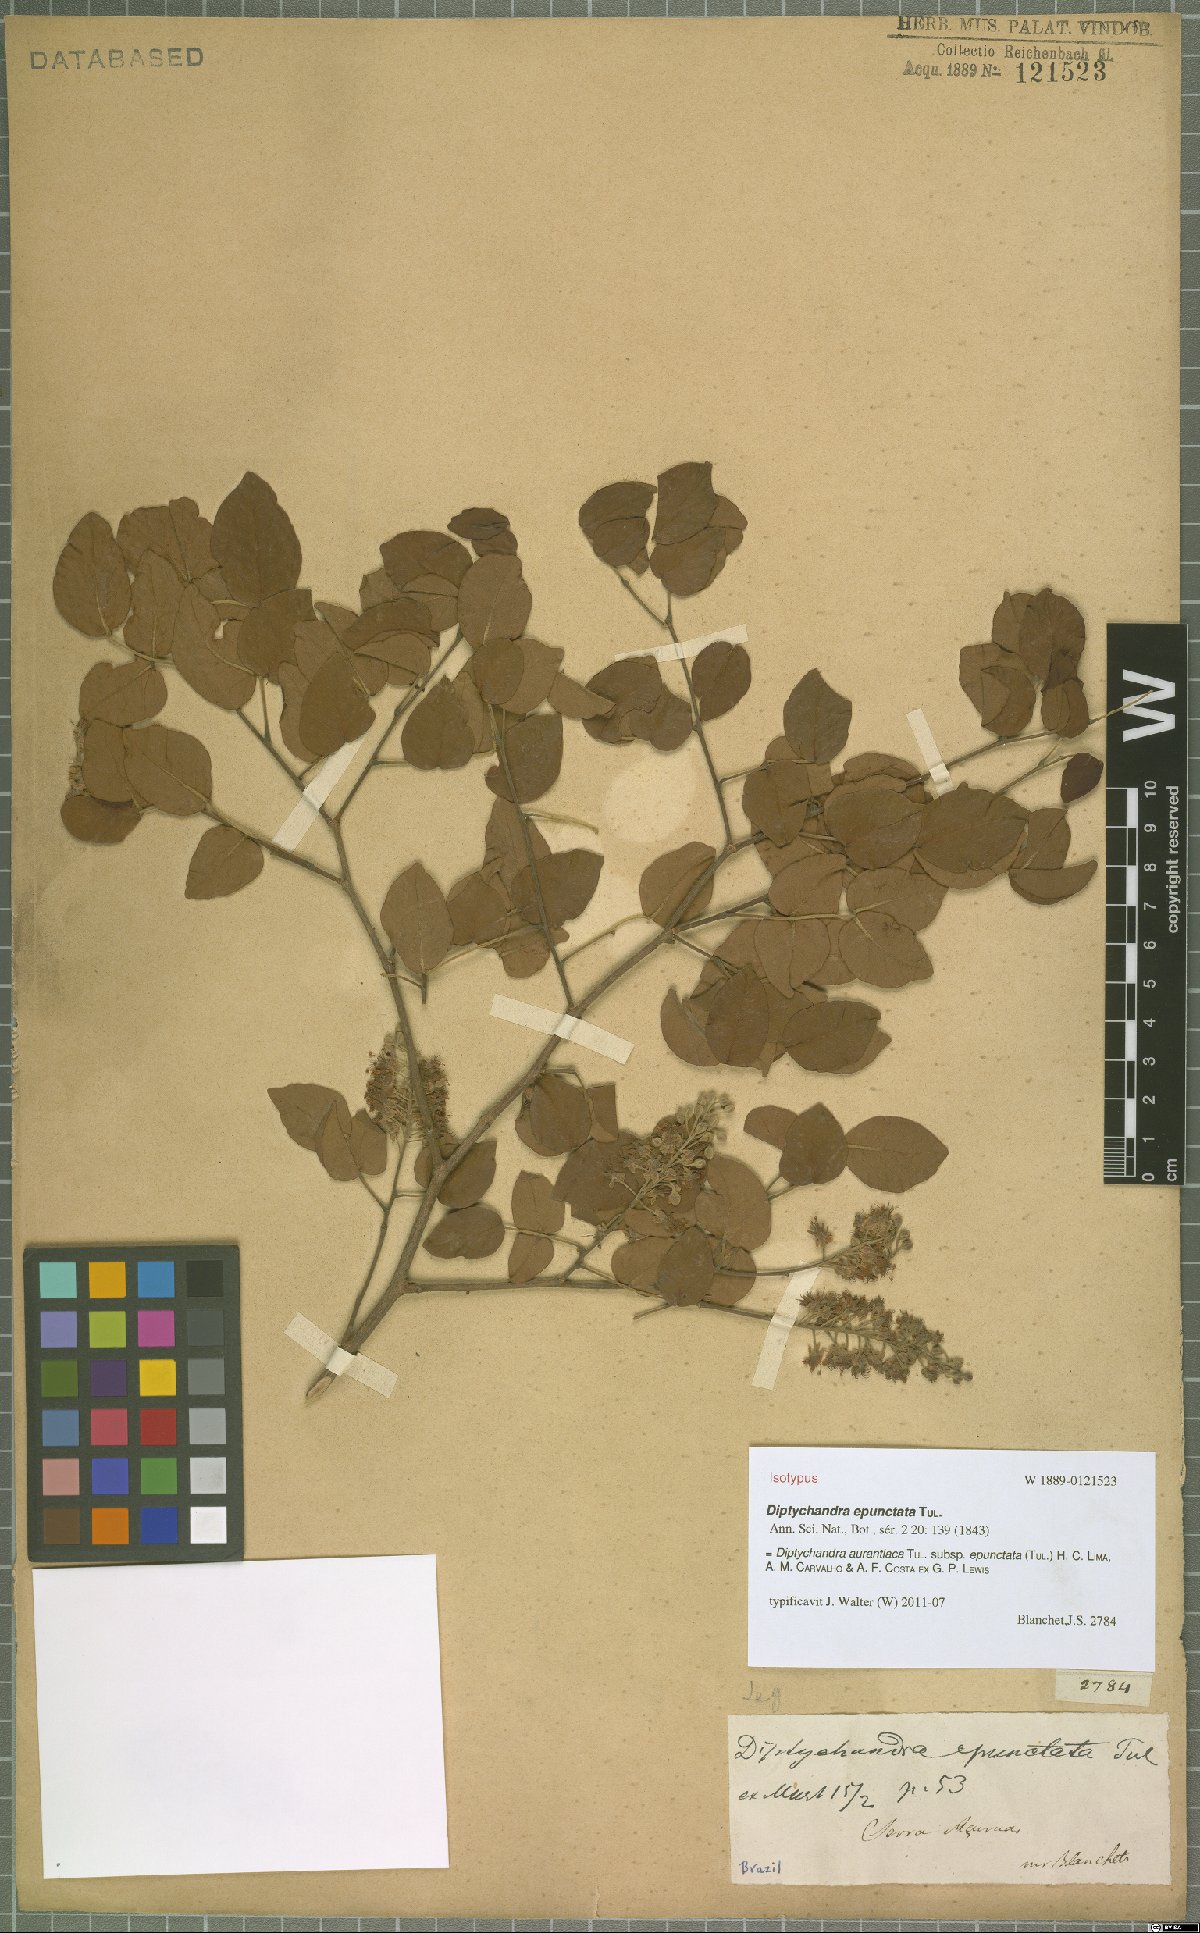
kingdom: Plantae
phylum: Tracheophyta
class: Magnoliopsida
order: Fabales
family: Fabaceae
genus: Diptychandra
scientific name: Diptychandra aurantiaca
